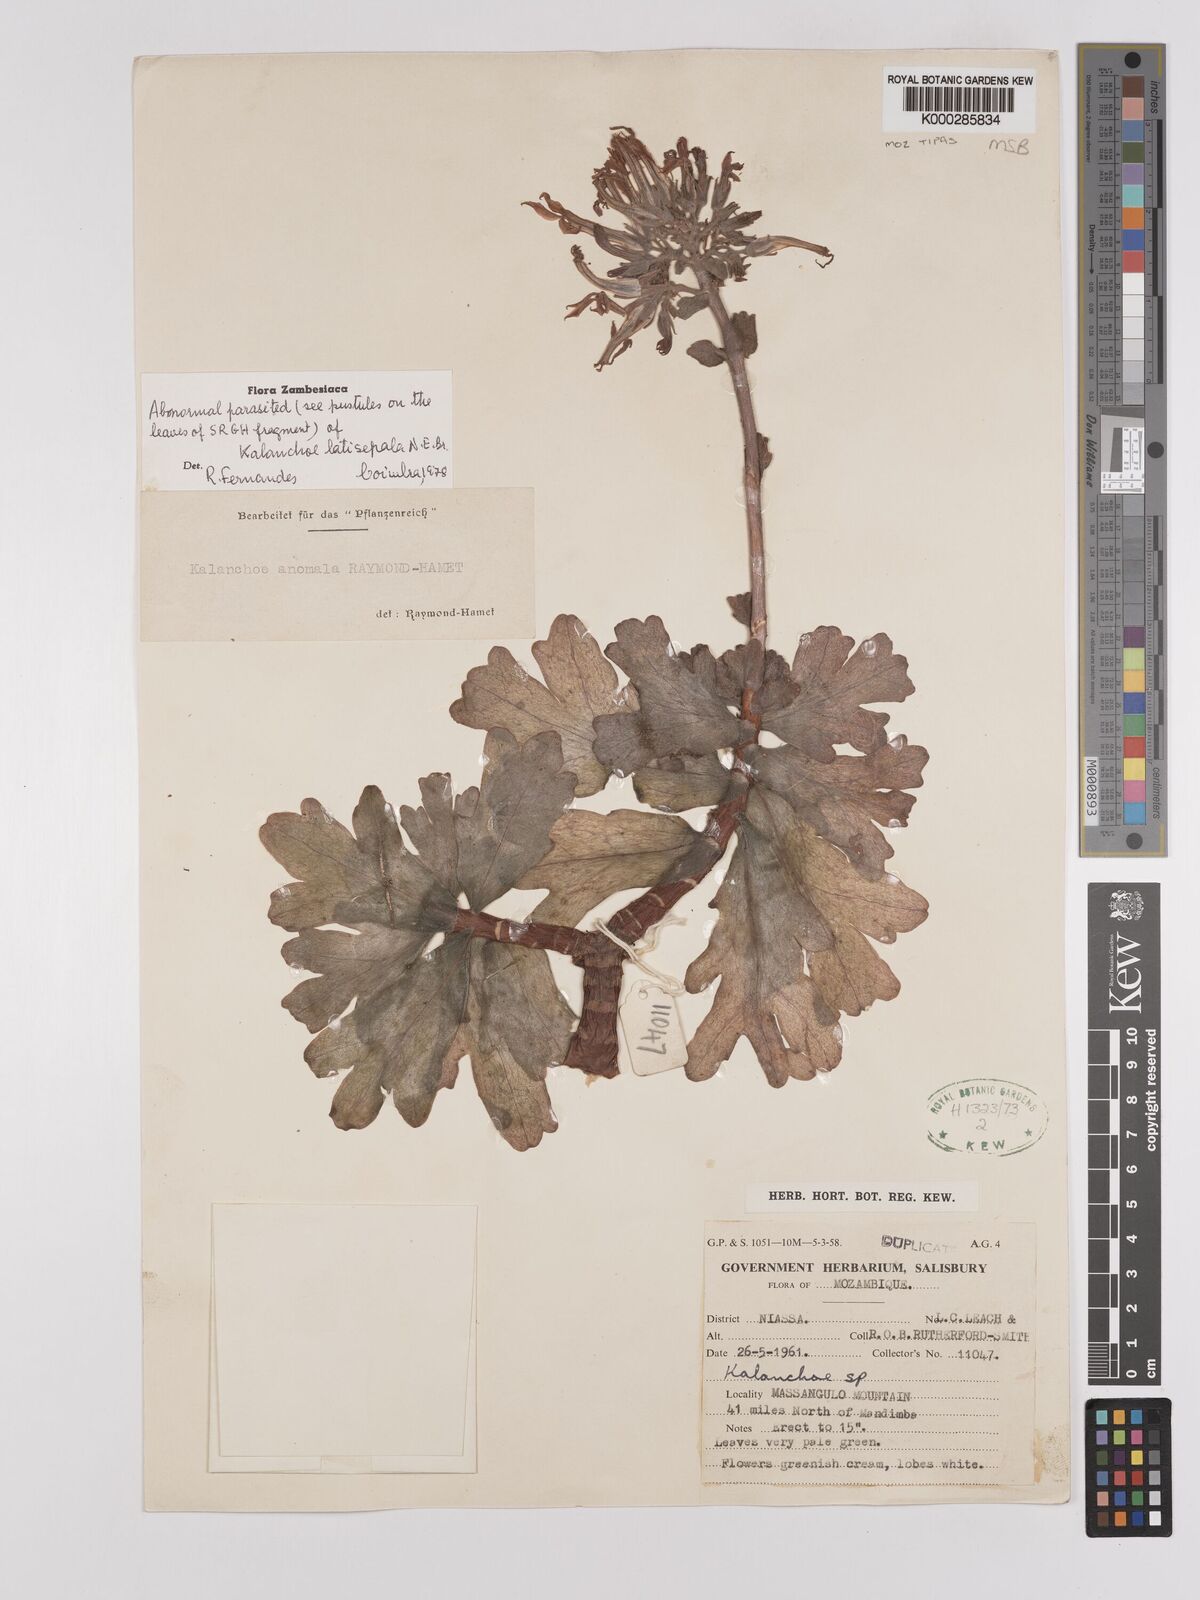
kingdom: Plantae
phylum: Tracheophyta
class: Magnoliopsida
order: Saxifragales
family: Crassulaceae
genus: Kalanchoe
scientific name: Kalanchoe latisepala
